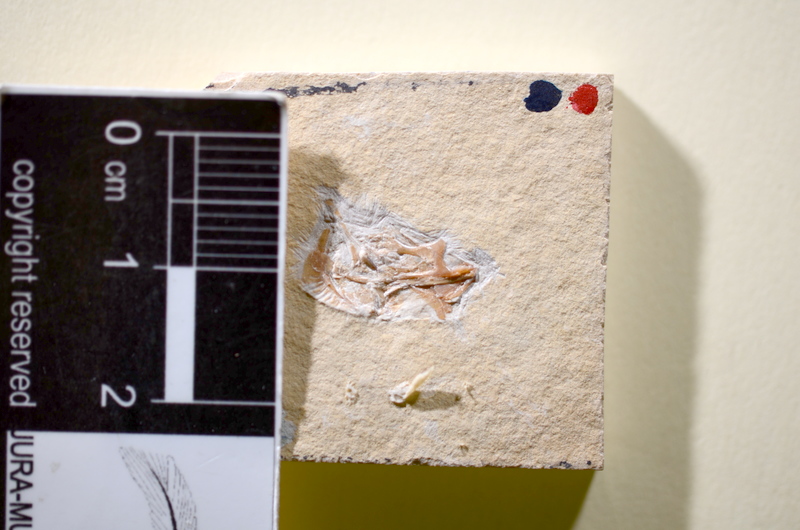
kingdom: Animalia
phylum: Chordata
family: Ascalaboidae
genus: Tharsis
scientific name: Tharsis dubius
